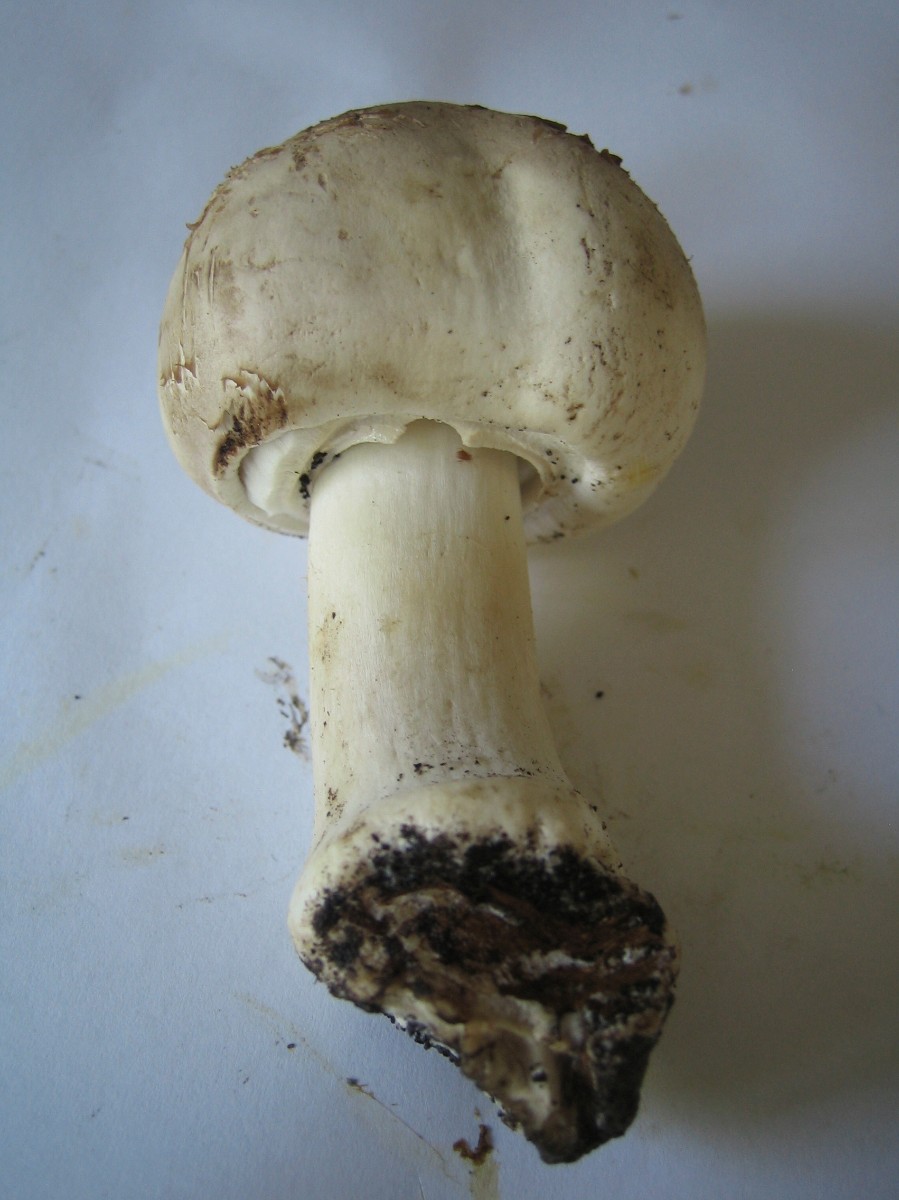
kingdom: Fungi
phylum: Basidiomycota
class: Agaricomycetes
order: Agaricales
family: Agaricaceae
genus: Agaricus
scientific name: Agaricus xanthodermus
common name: karbol-champignon
